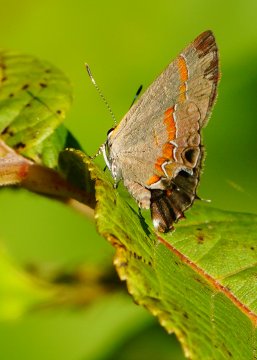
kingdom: Animalia
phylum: Arthropoda
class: Insecta
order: Lepidoptera
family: Lycaenidae
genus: Calycopis
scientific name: Calycopis cecrops
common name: Red-banded Hairstreak
